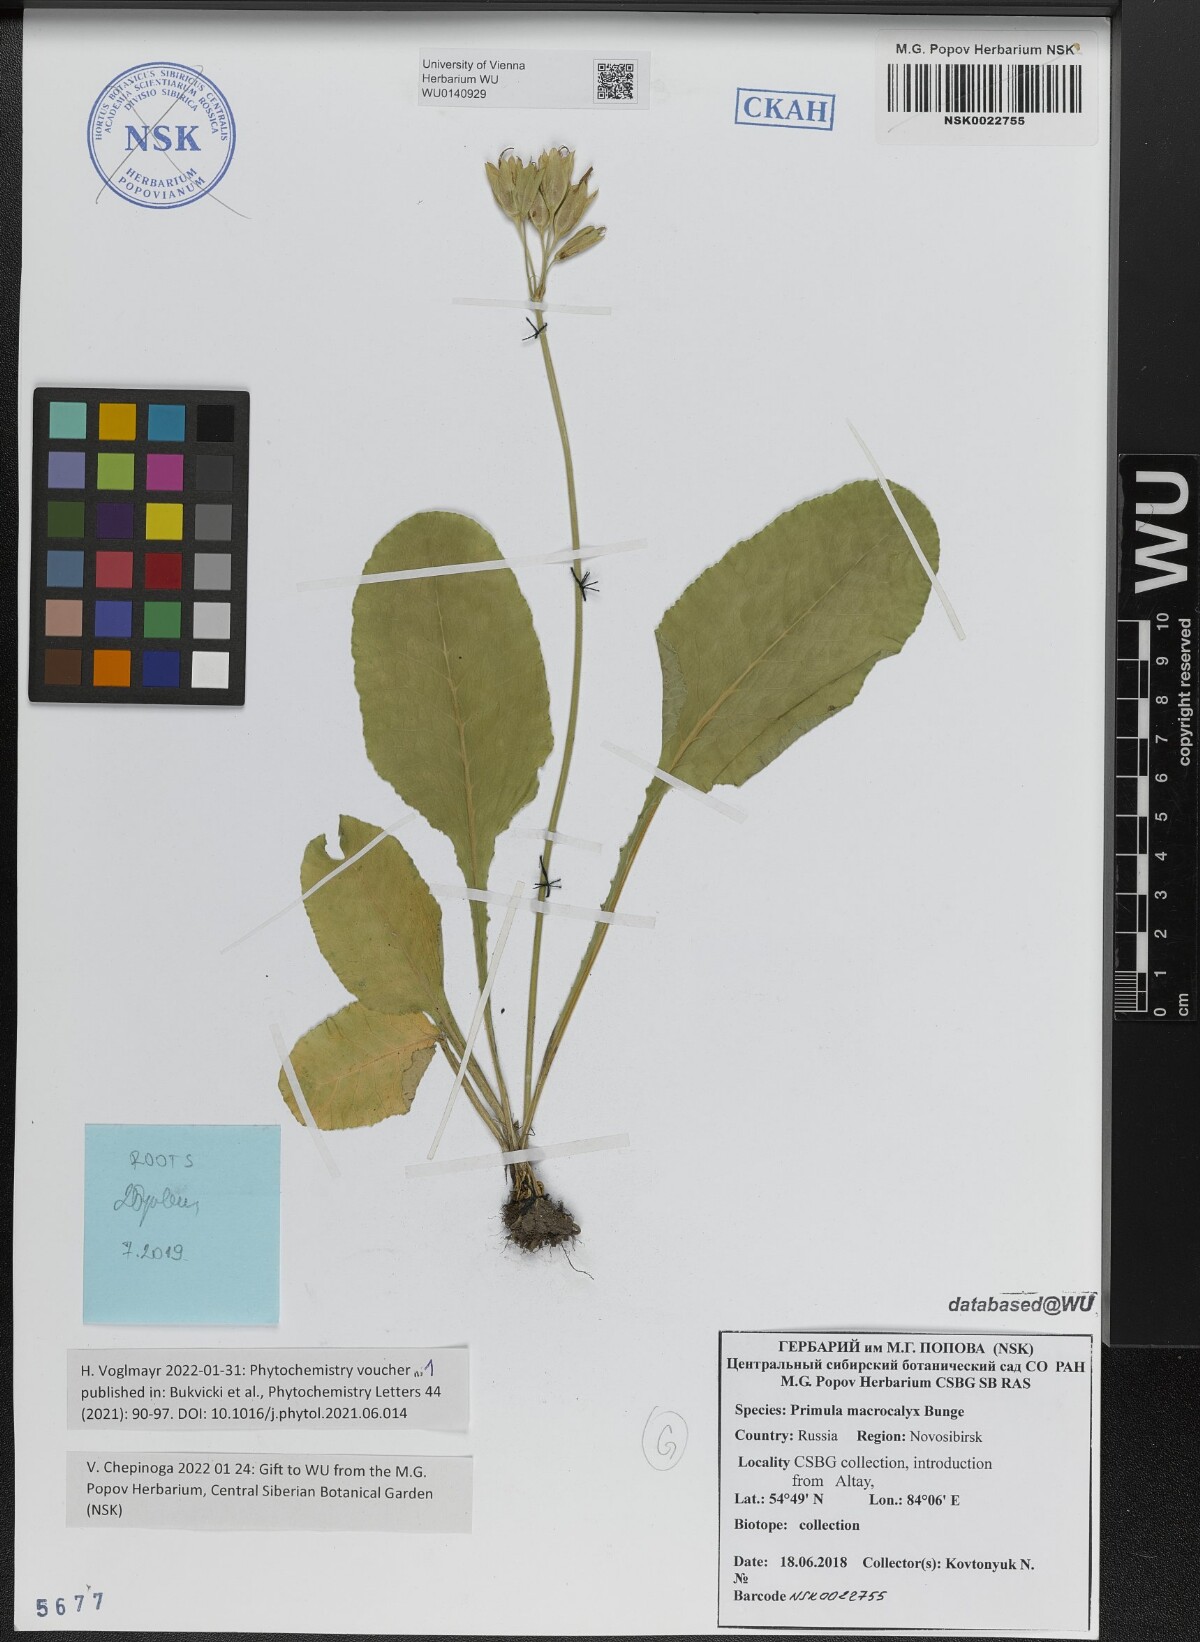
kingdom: Plantae
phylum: Tracheophyta
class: Magnoliopsida
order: Ericales
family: Primulaceae
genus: Primula
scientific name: Primula veris
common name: Cowslip
